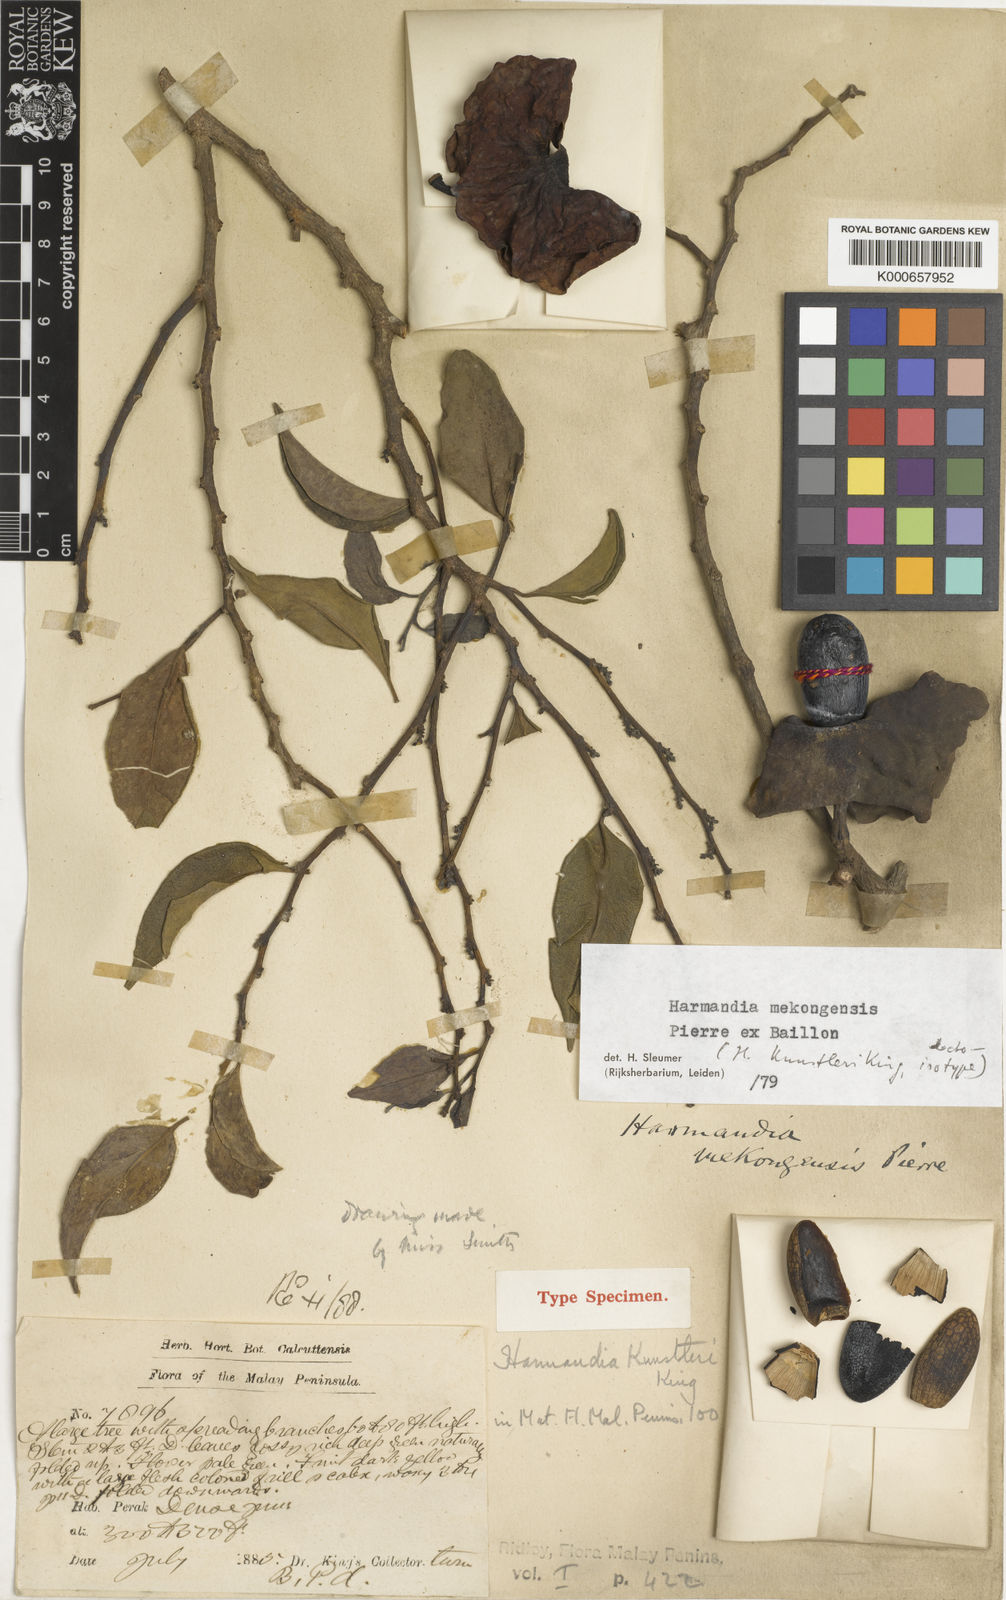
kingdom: Plantae
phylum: Tracheophyta
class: Magnoliopsida
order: Santalales
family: Aptandraceae
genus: Harmandia
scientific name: Harmandia mekongensis
